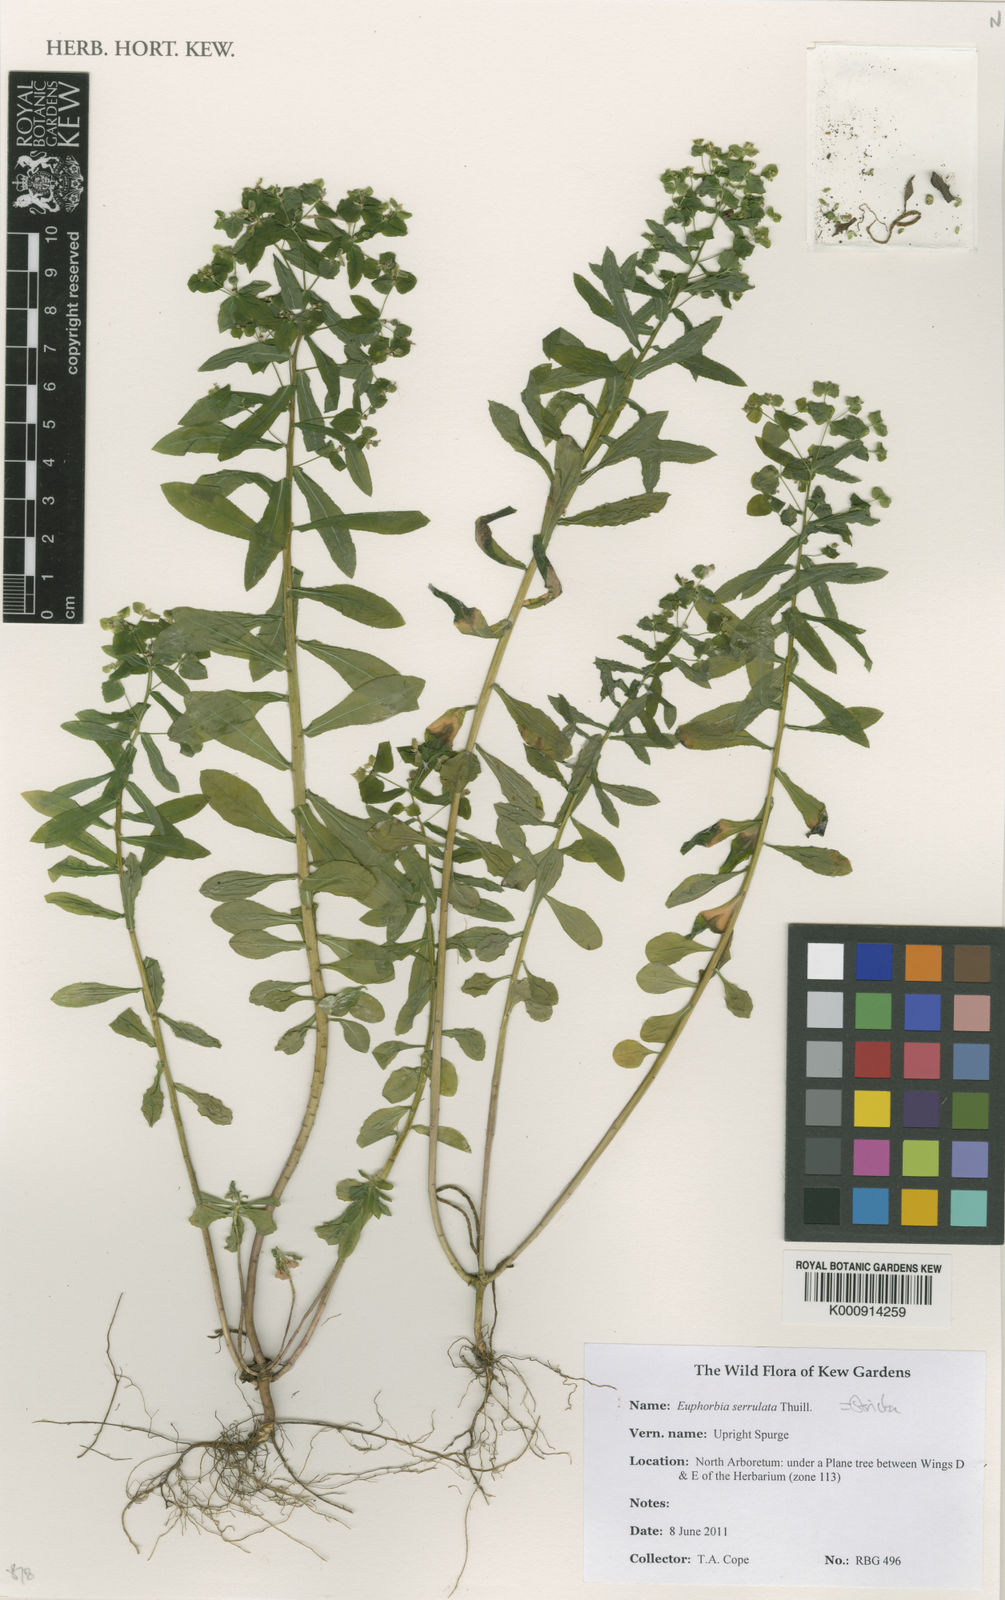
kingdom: Plantae
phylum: Tracheophyta
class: Magnoliopsida
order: Malpighiales
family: Euphorbiaceae
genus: Euphorbia
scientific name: Euphorbia stricta
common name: Upright spurge
